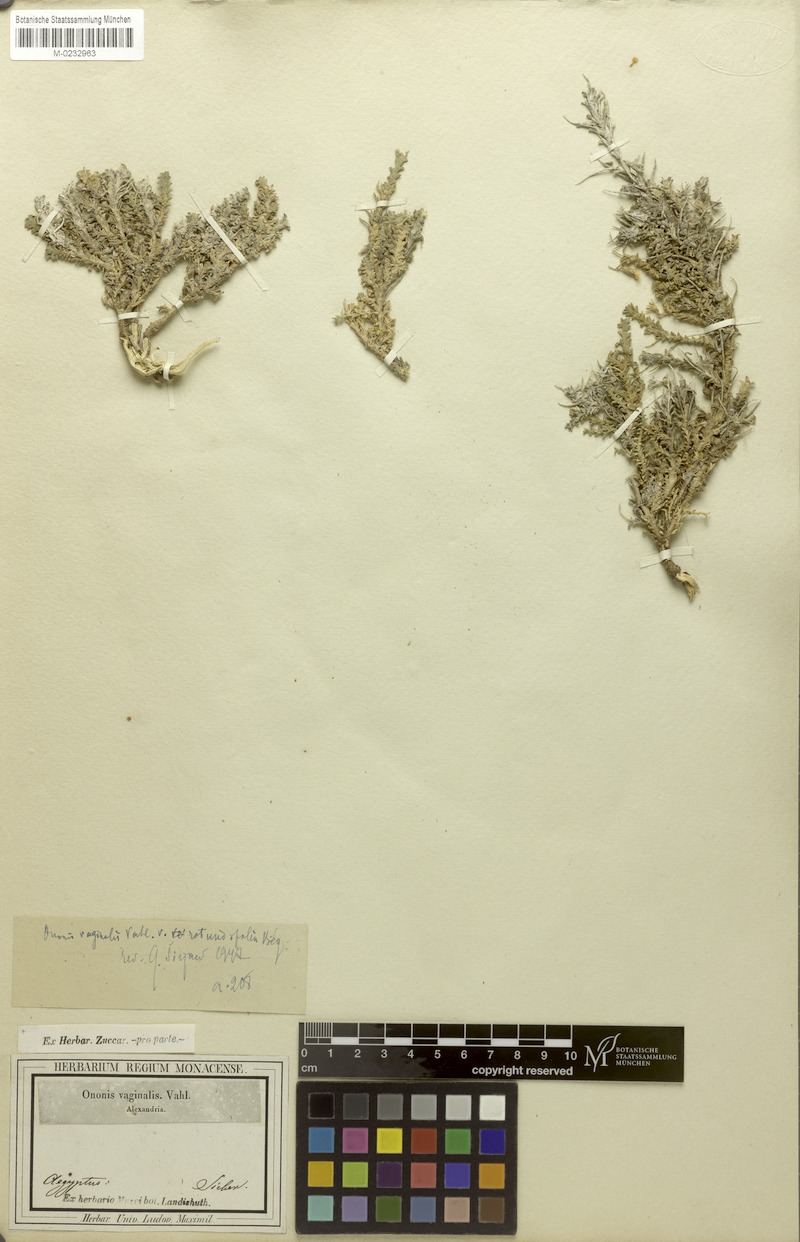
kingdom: Plantae
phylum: Tracheophyta
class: Magnoliopsida
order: Fabales
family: Fabaceae
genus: Ononis
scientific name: Ononis vaginalis
